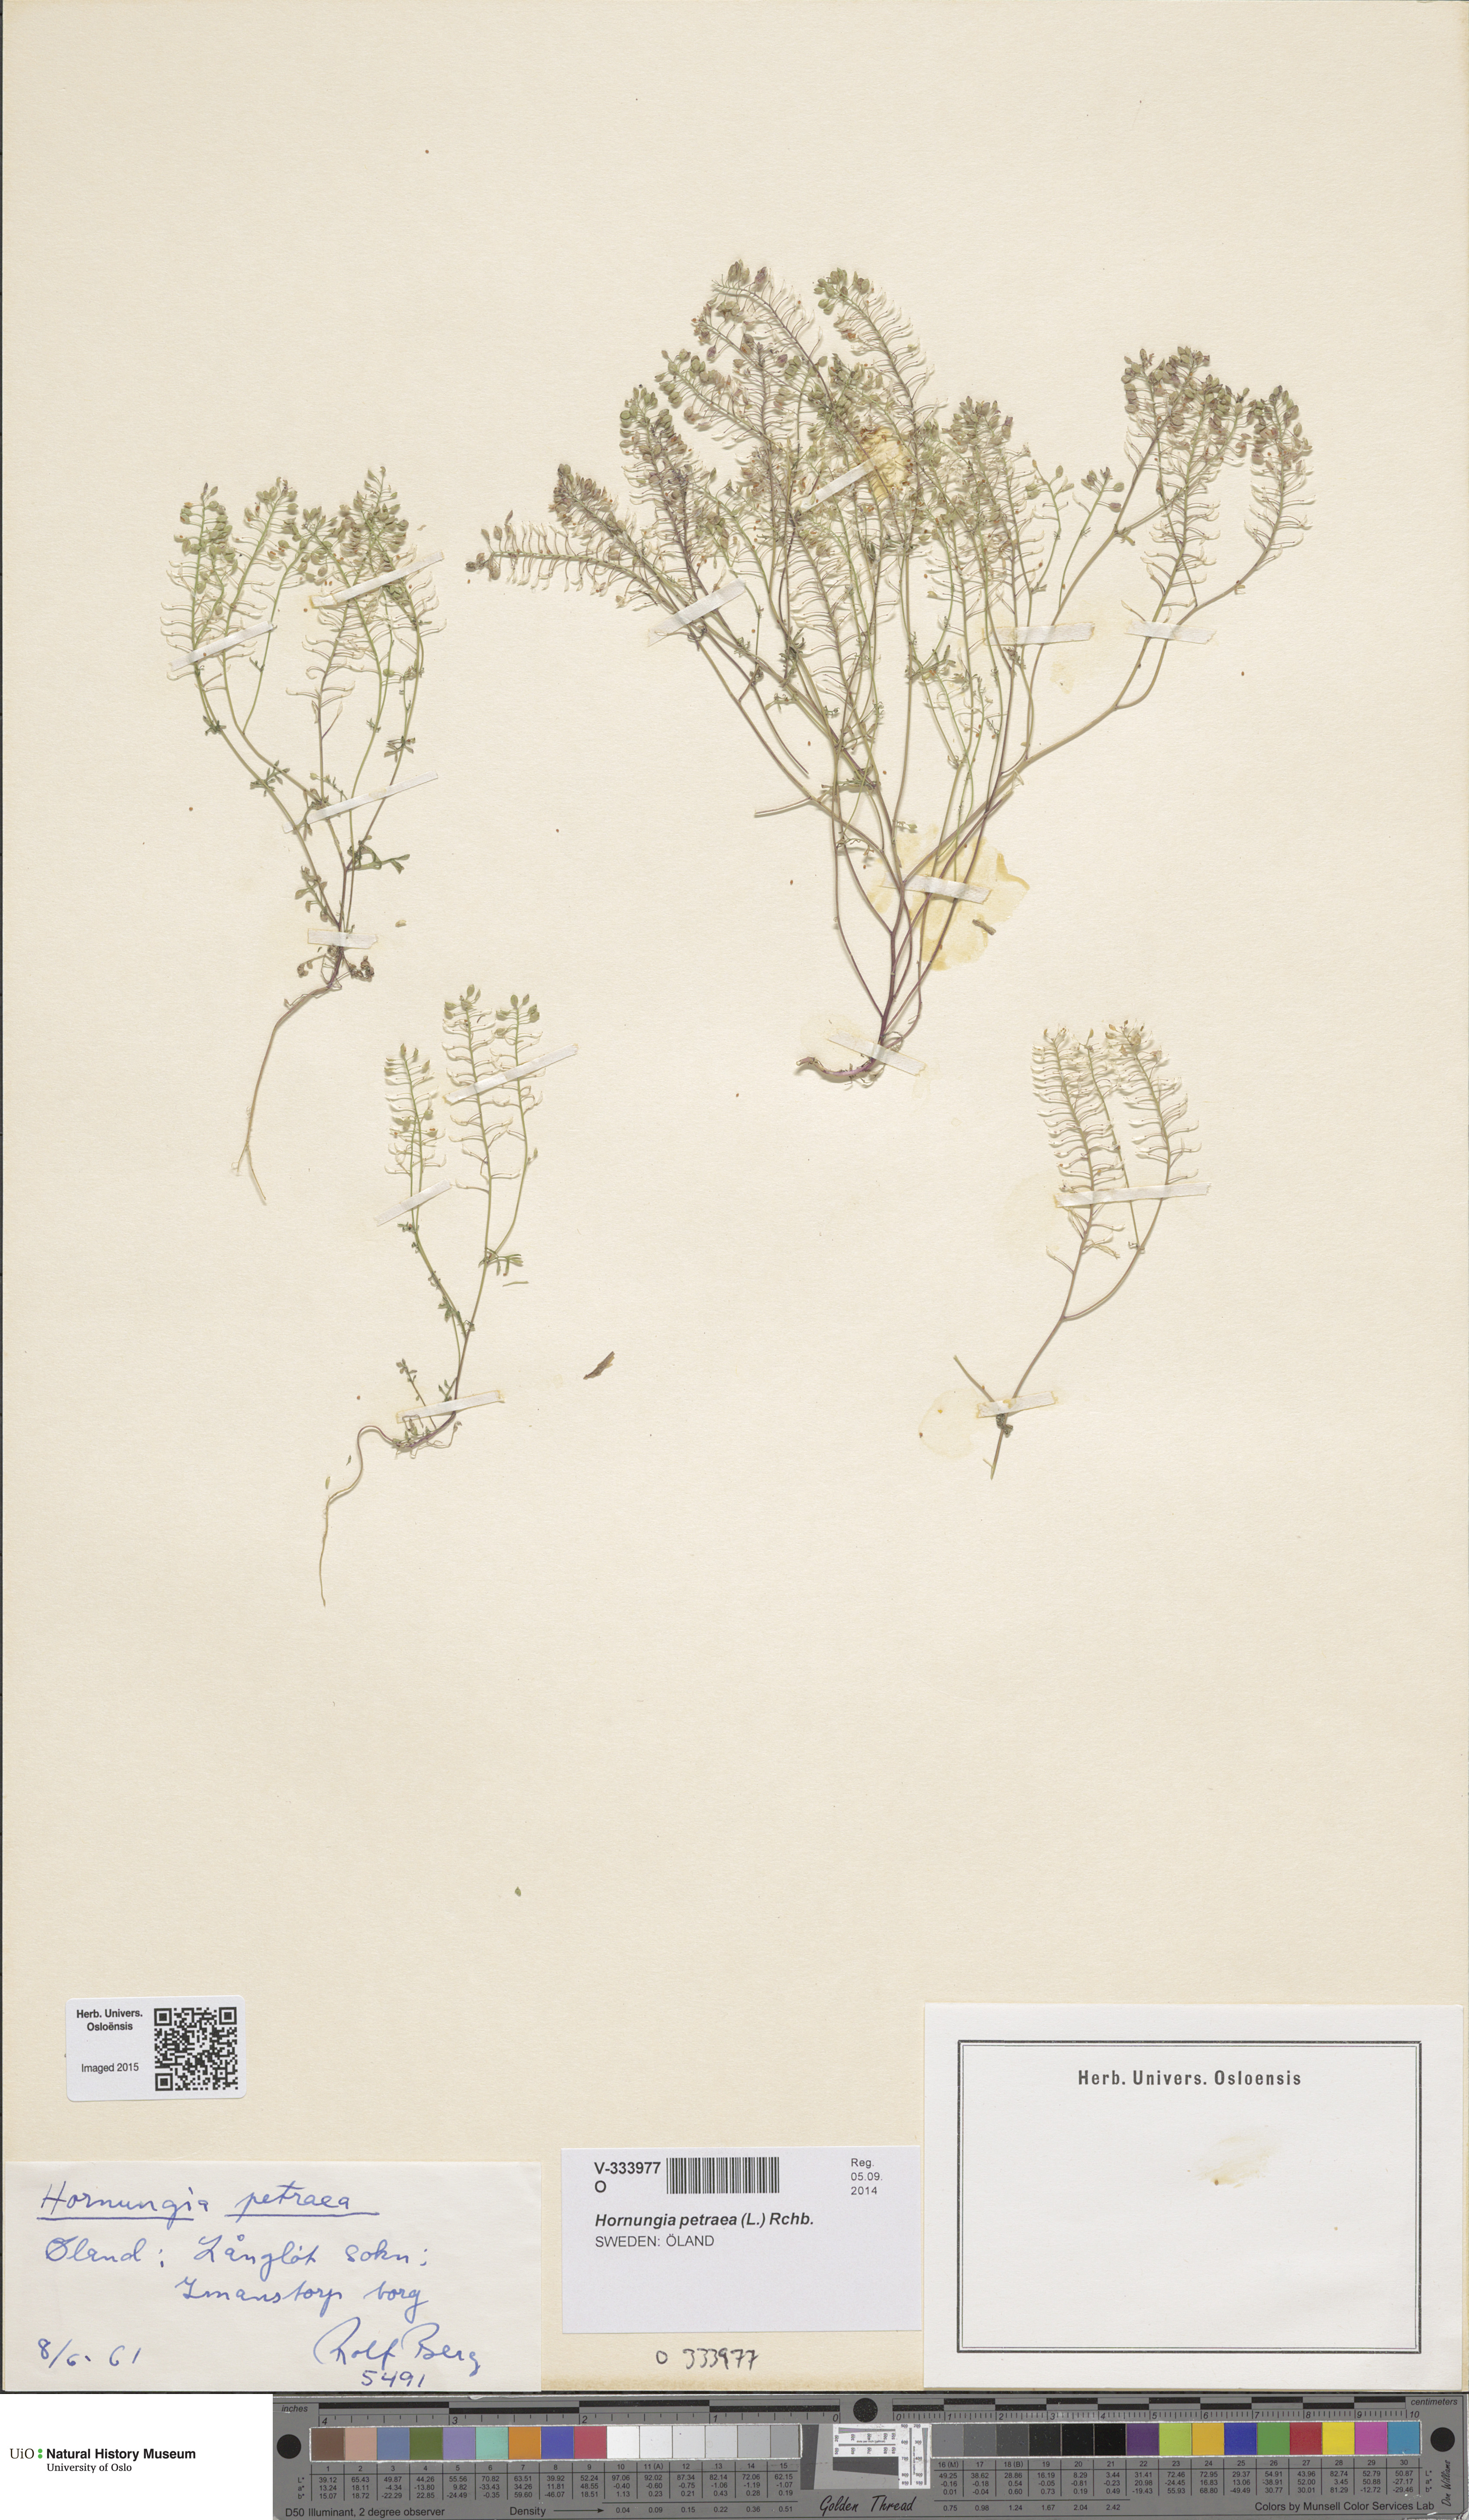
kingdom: Plantae
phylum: Tracheophyta
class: Magnoliopsida
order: Brassicales
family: Brassicaceae
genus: Hornungia
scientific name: Hornungia petraea
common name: Hutchinsia
